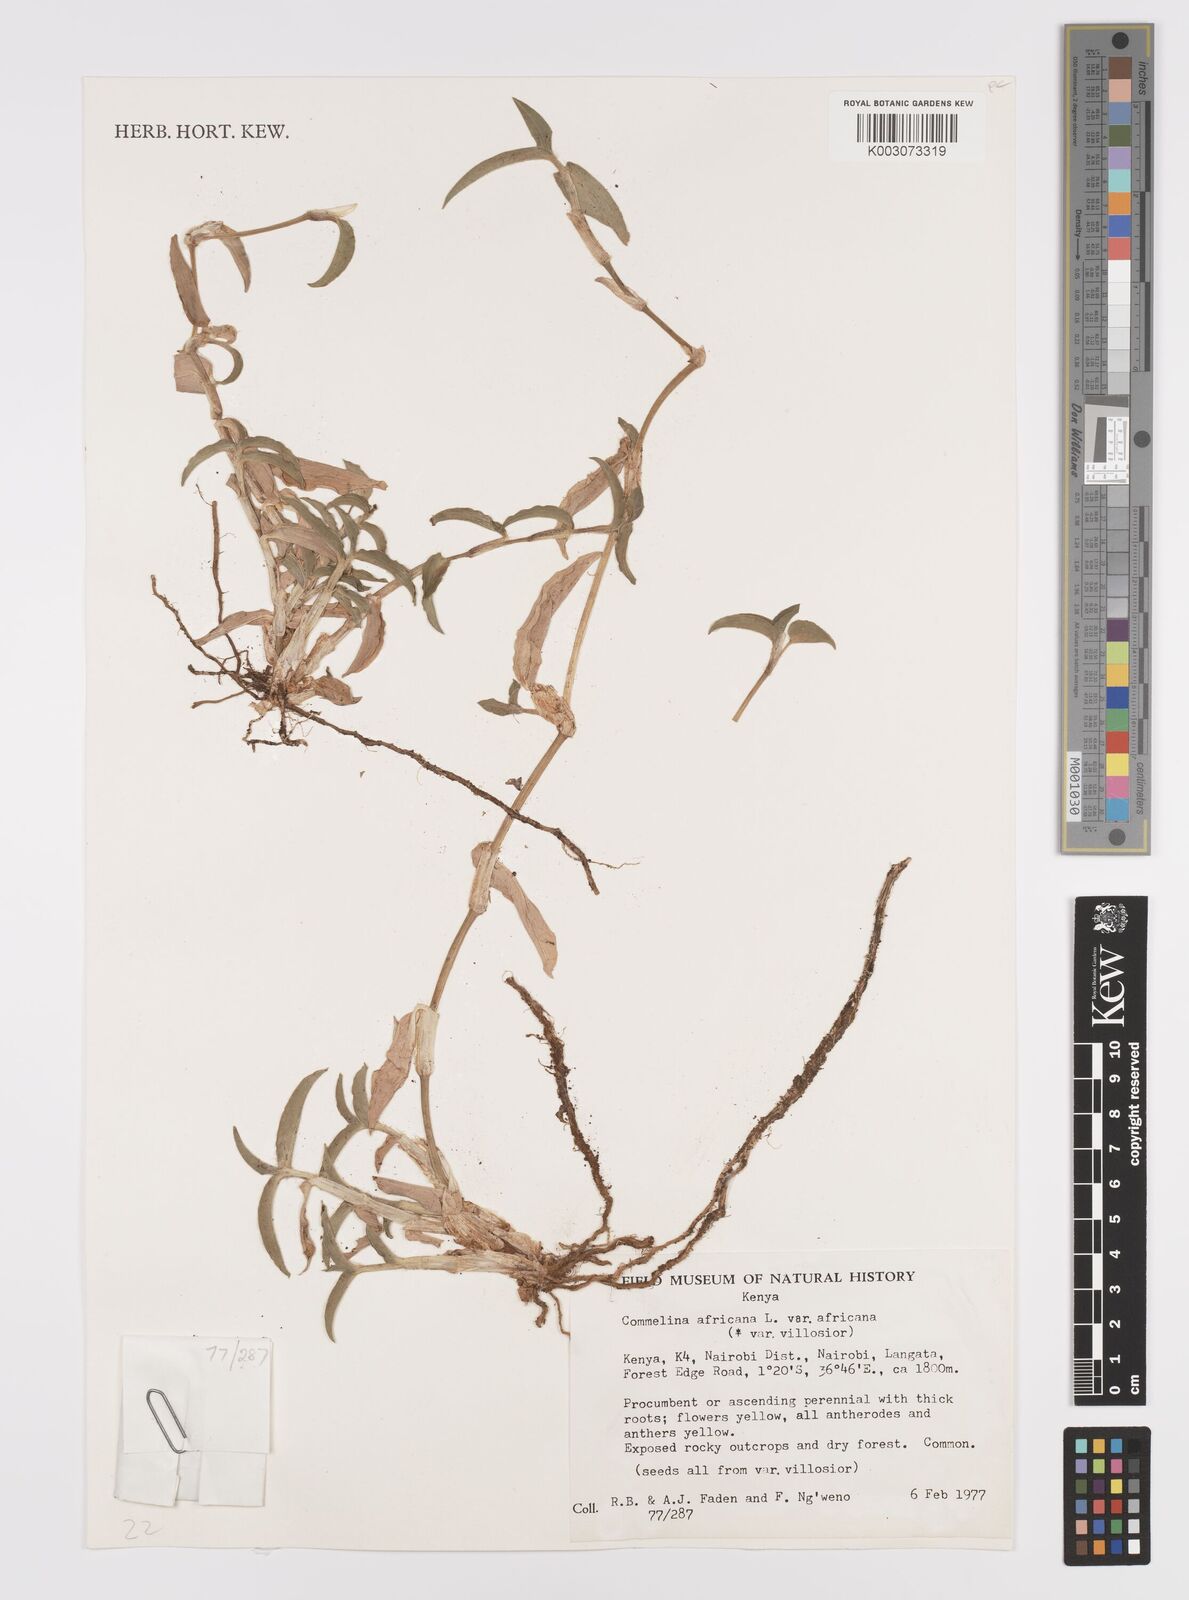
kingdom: Plantae
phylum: Tracheophyta
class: Liliopsida
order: Commelinales
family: Commelinaceae
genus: Commelina
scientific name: Commelina africana
